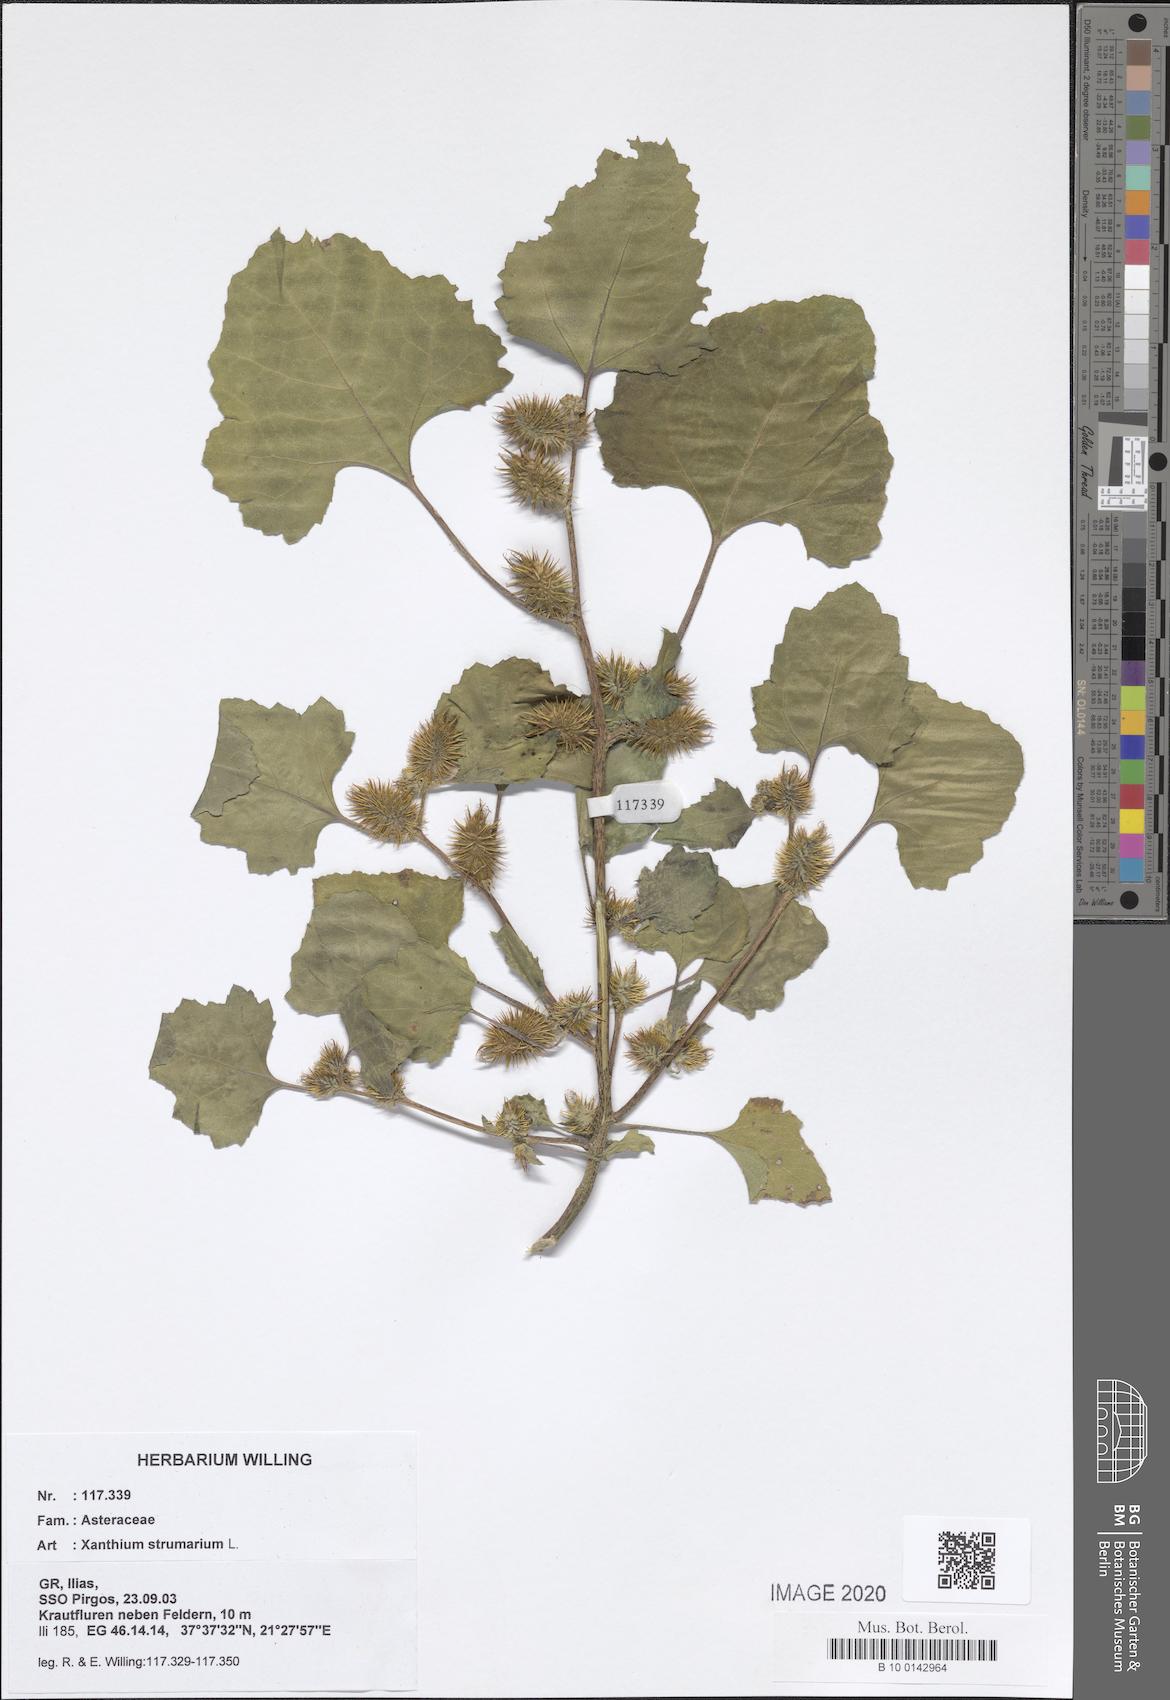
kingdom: Plantae
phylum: Tracheophyta
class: Magnoliopsida
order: Asterales
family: Asteraceae
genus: Xanthium
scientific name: Xanthium strumarium
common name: Rough cocklebur
